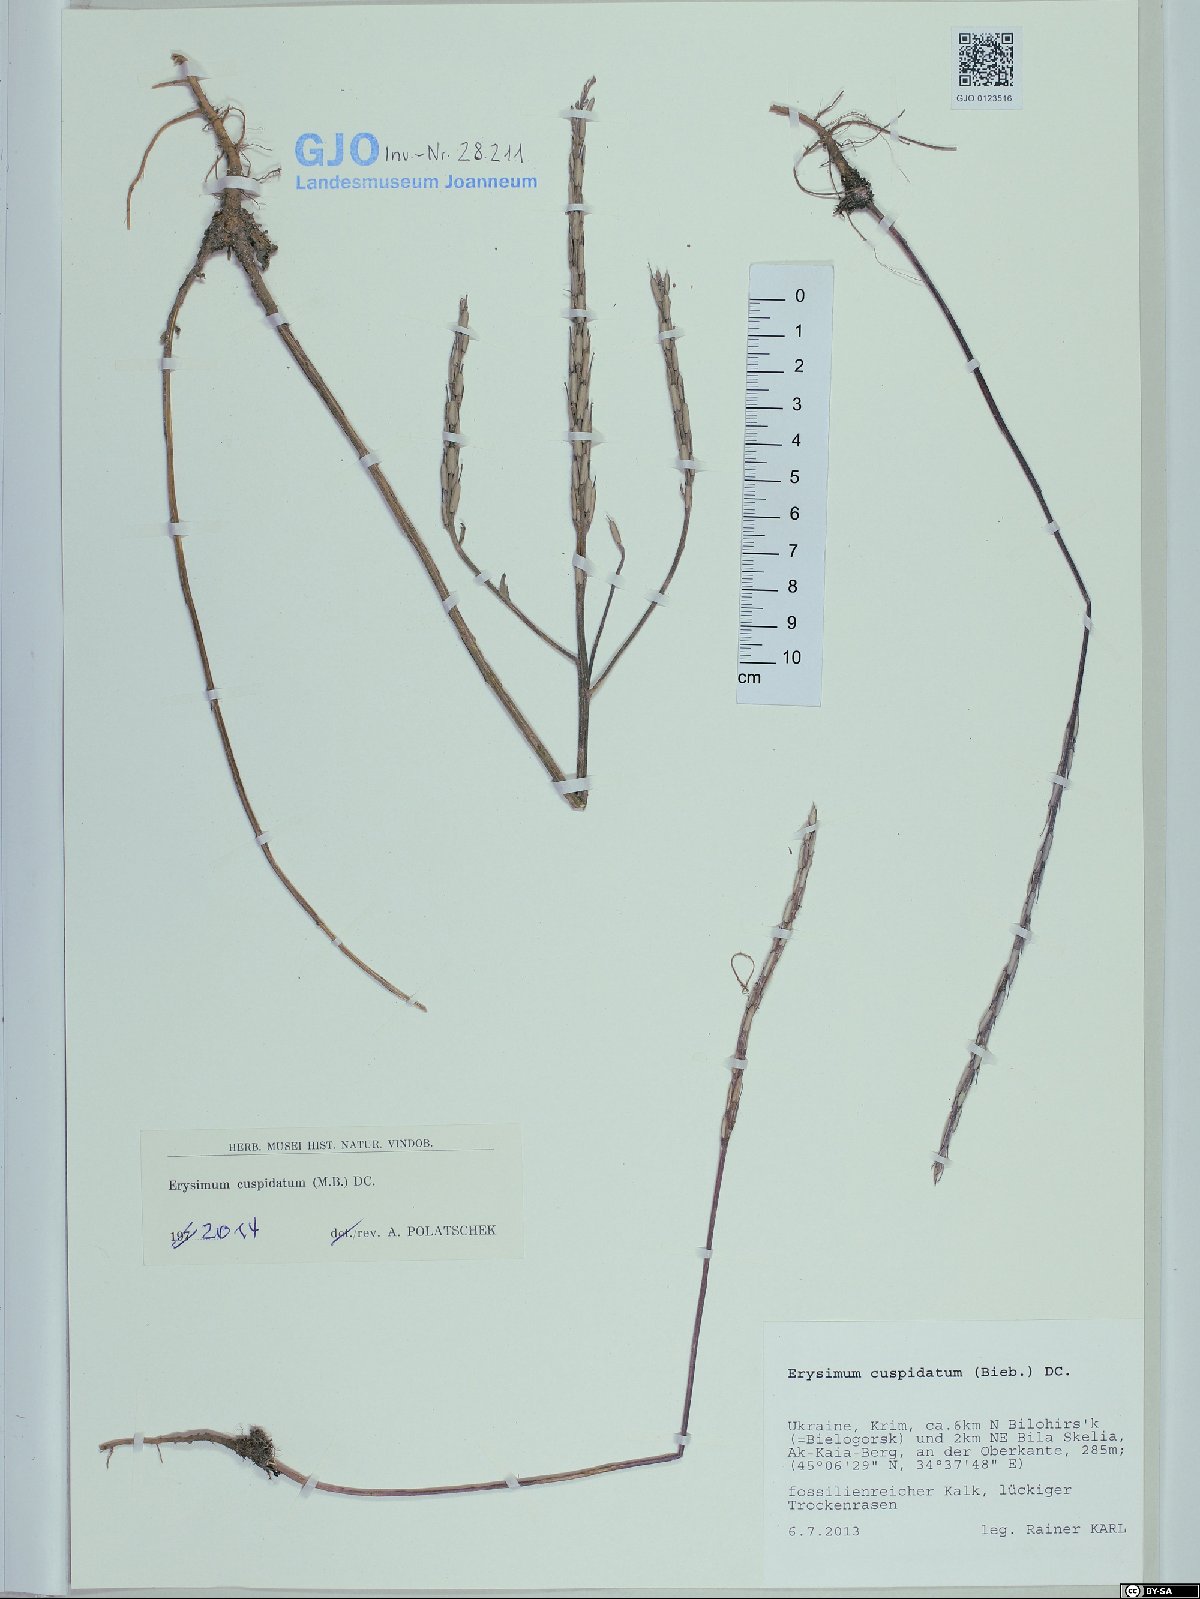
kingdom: Plantae
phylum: Tracheophyta
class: Magnoliopsida
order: Brassicales
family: Brassicaceae
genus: Erysimum
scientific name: Erysimum cuspidatum
